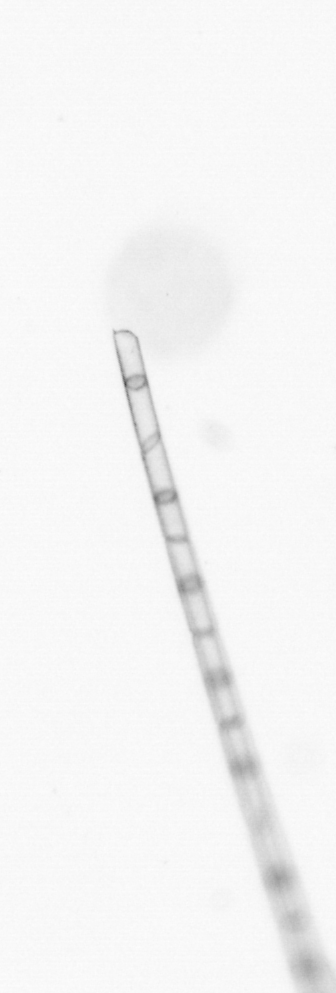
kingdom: Chromista
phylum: Ochrophyta
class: Bacillariophyceae
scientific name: Bacillariophyceae
